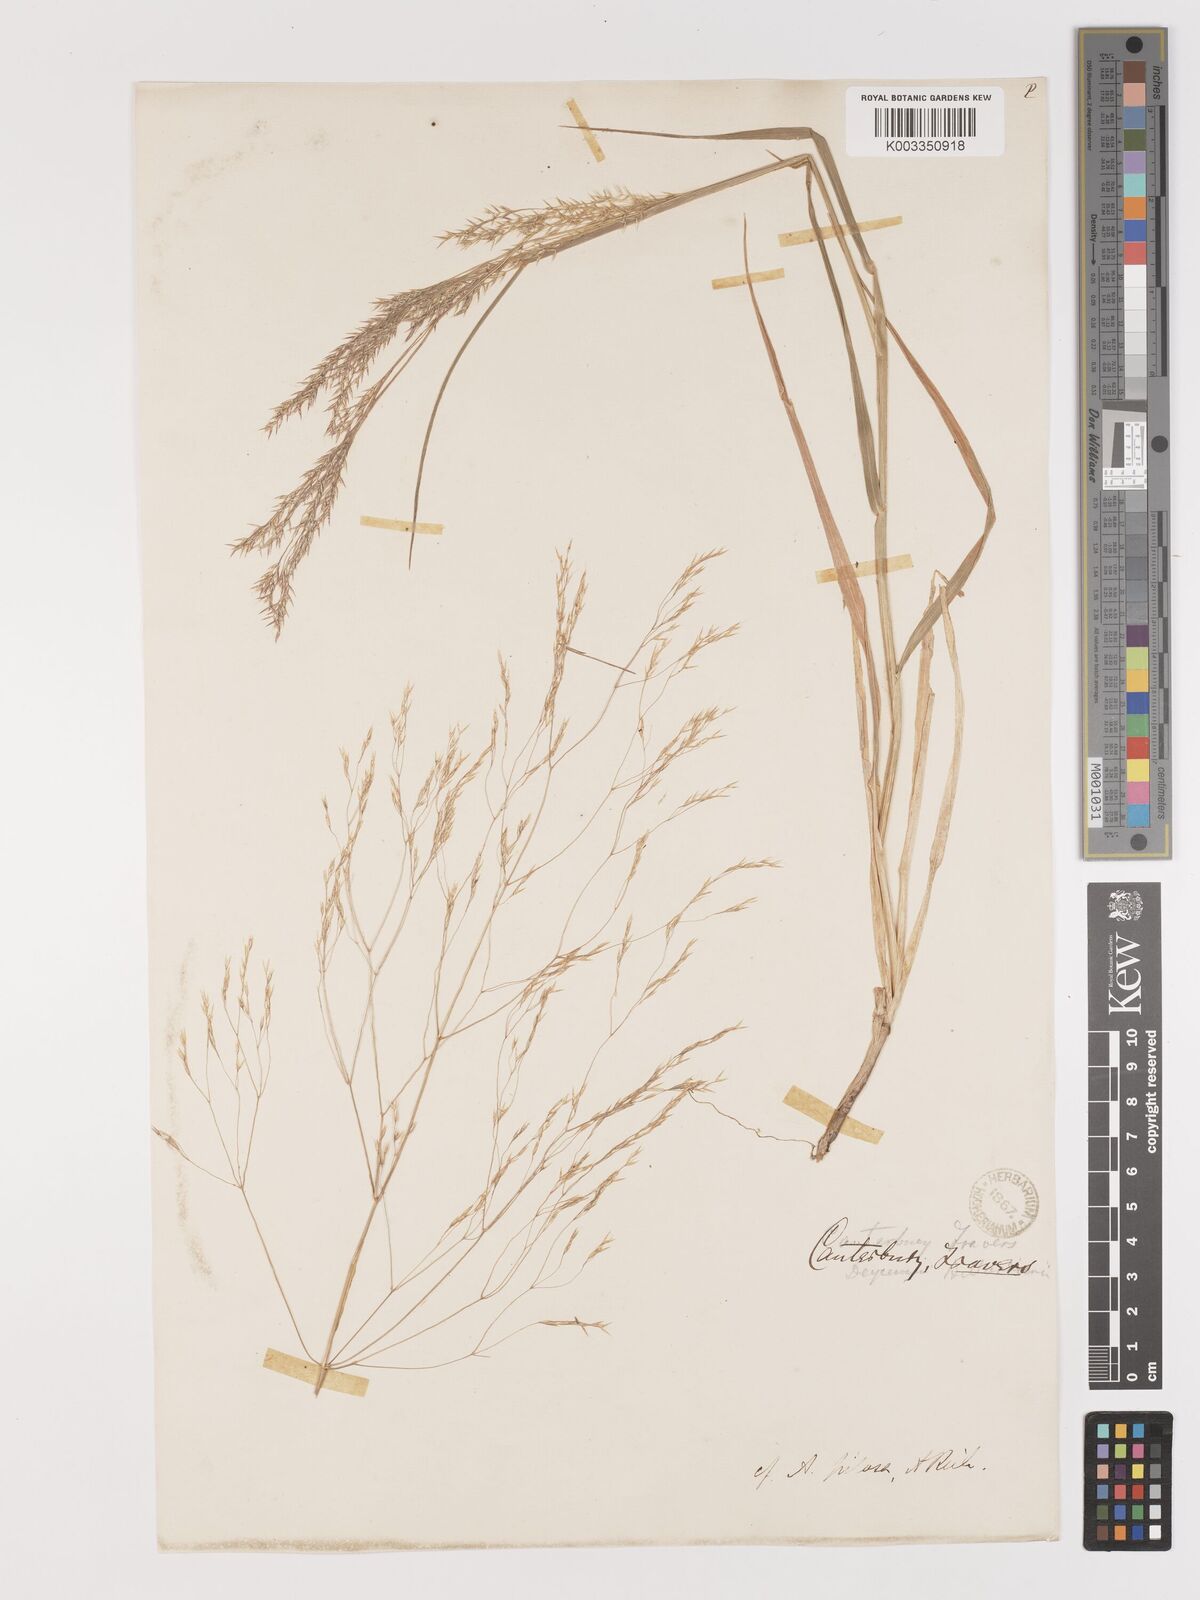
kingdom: Plantae
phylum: Tracheophyta
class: Liliopsida
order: Poales
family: Poaceae
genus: Lachnagrostis
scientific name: Lachnagrostis pilosa
